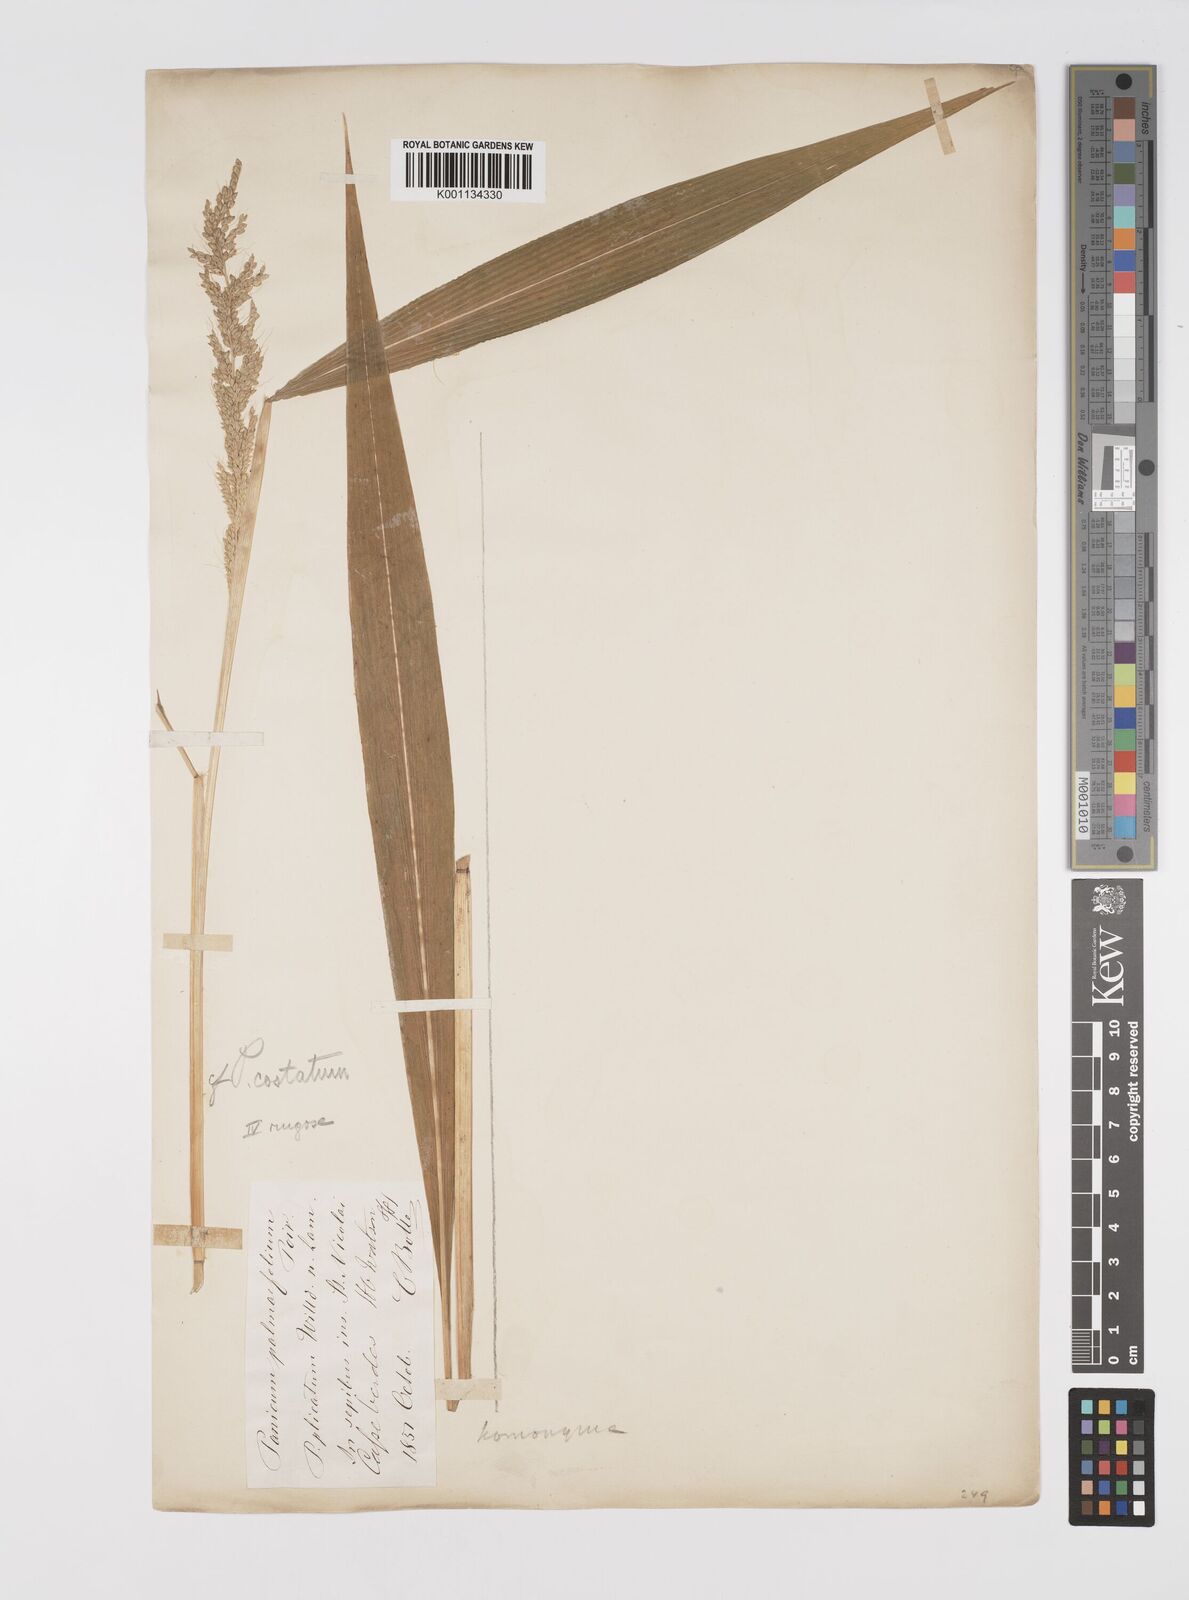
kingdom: Plantae
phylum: Tracheophyta
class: Liliopsida
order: Poales
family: Poaceae
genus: Setaria
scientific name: Setaria barbata
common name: East indian bristlegrass
